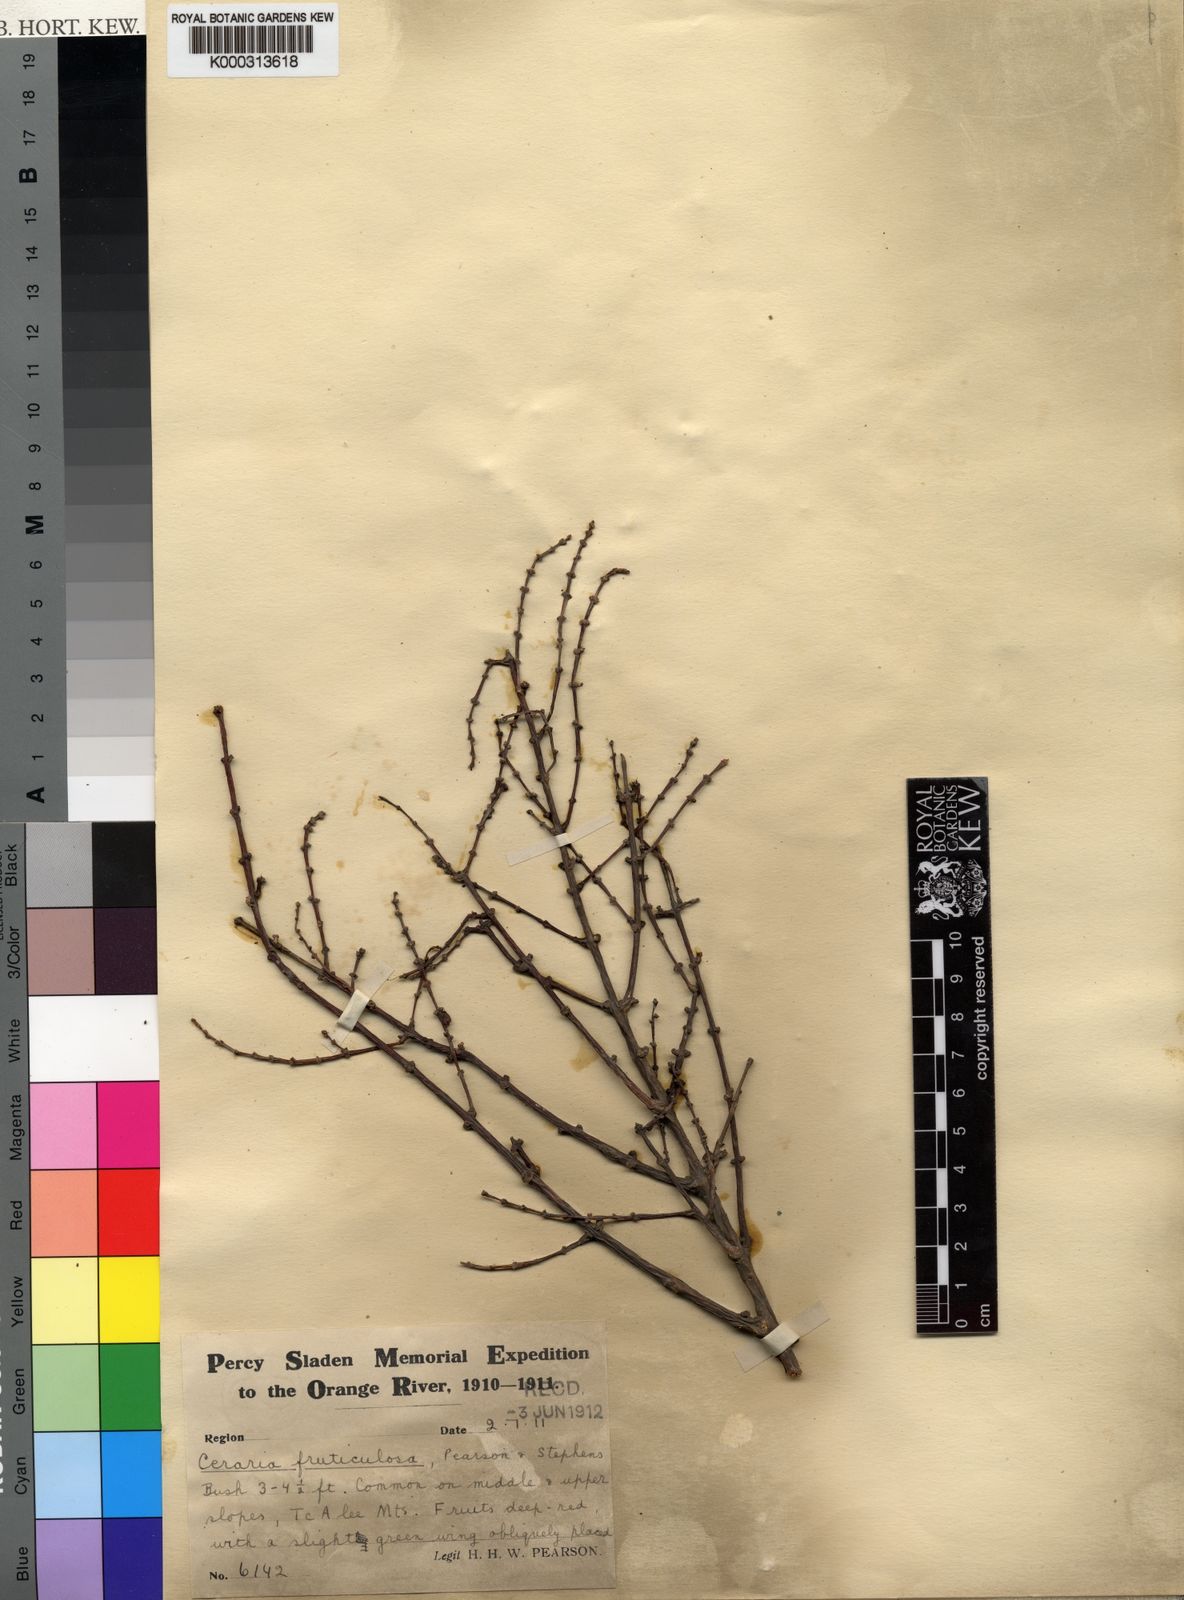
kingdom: Plantae
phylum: Tracheophyta
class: Magnoliopsida
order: Caryophyllales
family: Didiereaceae
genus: Portulacaria
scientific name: Portulacaria fruticulosa
